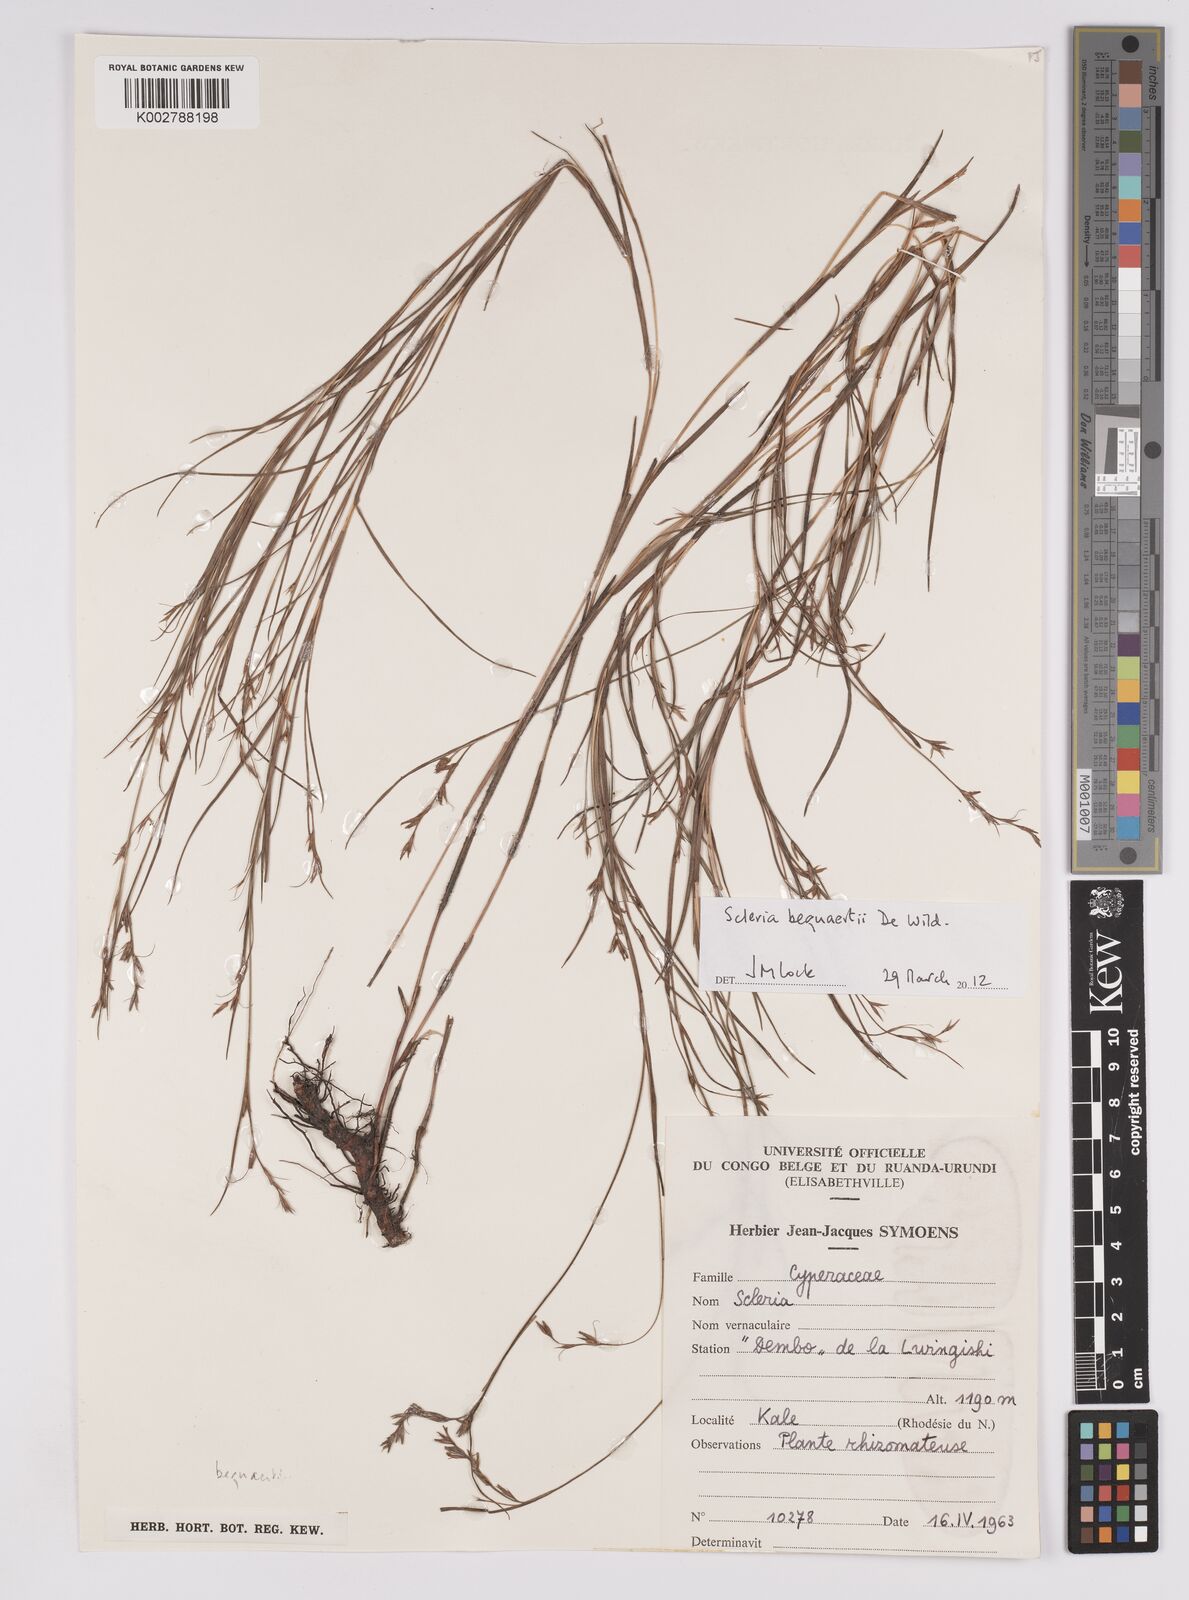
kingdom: Plantae
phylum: Tracheophyta
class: Liliopsida
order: Poales
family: Cyperaceae
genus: Scleria
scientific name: Scleria bequaertii
